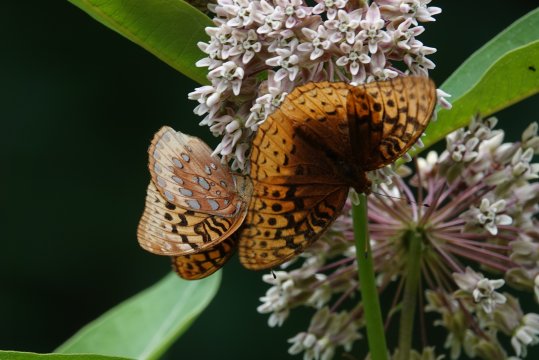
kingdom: Animalia
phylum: Arthropoda
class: Insecta
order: Lepidoptera
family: Nymphalidae
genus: Speyeria
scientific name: Speyeria cybele
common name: Great Spangled Fritillary
